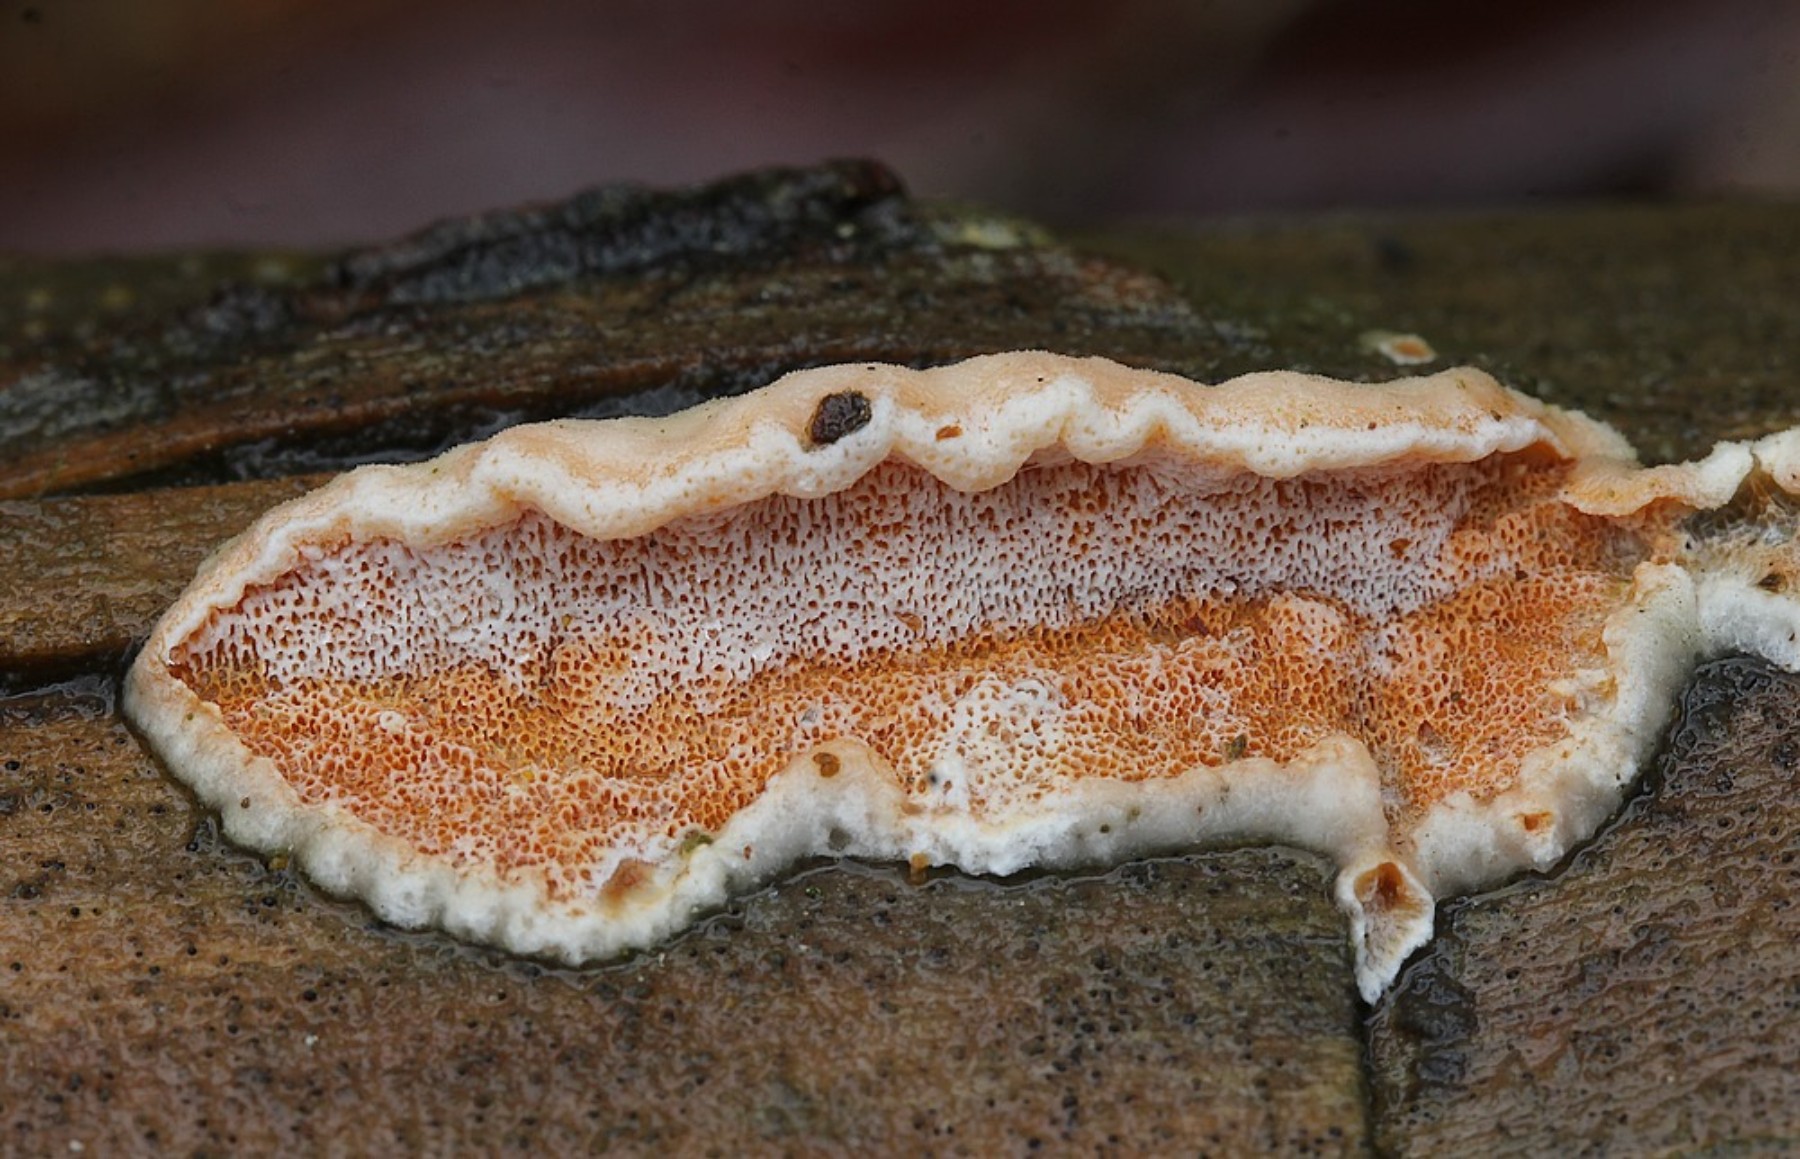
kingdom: Fungi
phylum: Basidiomycota
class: Agaricomycetes
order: Polyporales
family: Incrustoporiaceae
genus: Skeletocutis
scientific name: Skeletocutis amorpha
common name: orange krystalporesvamp
